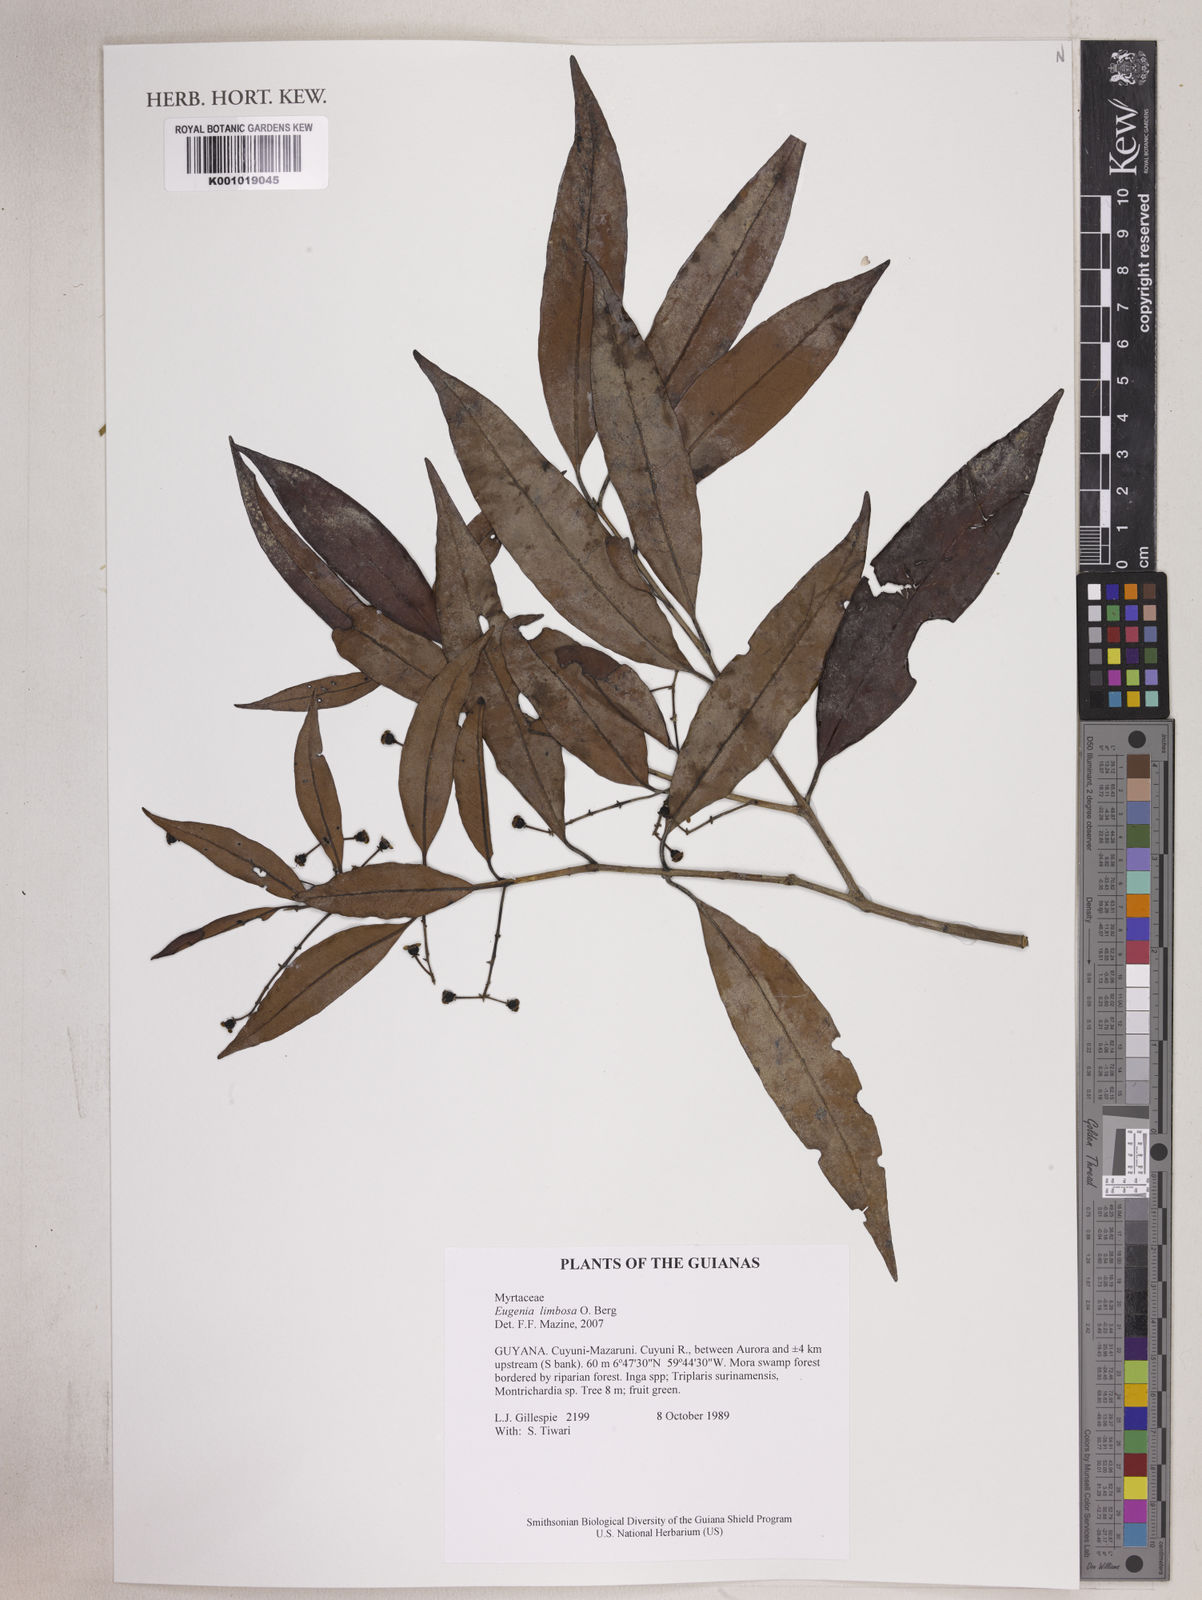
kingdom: Plantae
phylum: Tracheophyta
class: Magnoliopsida
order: Myrtales
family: Myrtaceae
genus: Eugenia
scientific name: Eugenia limbosa
